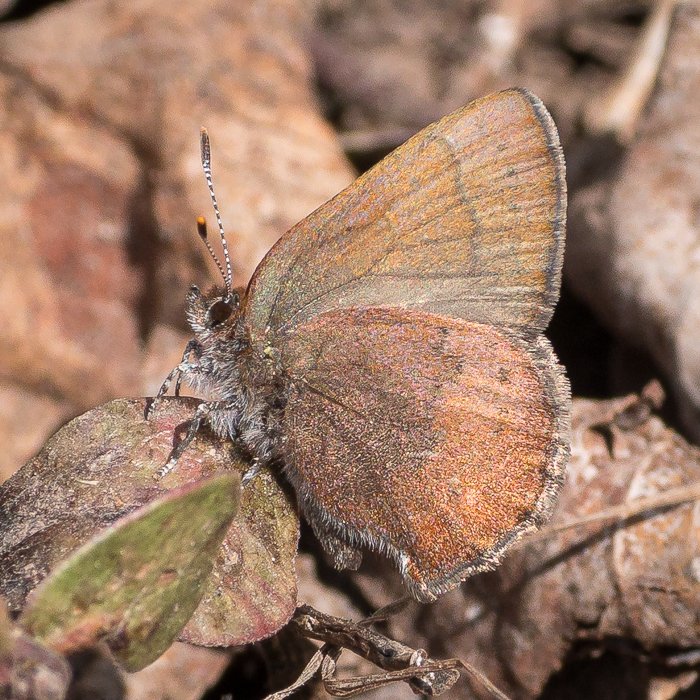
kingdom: Animalia
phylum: Arthropoda
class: Insecta
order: Lepidoptera
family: Lycaenidae
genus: Incisalia
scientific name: Incisalia irioides
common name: Brown Elfin
